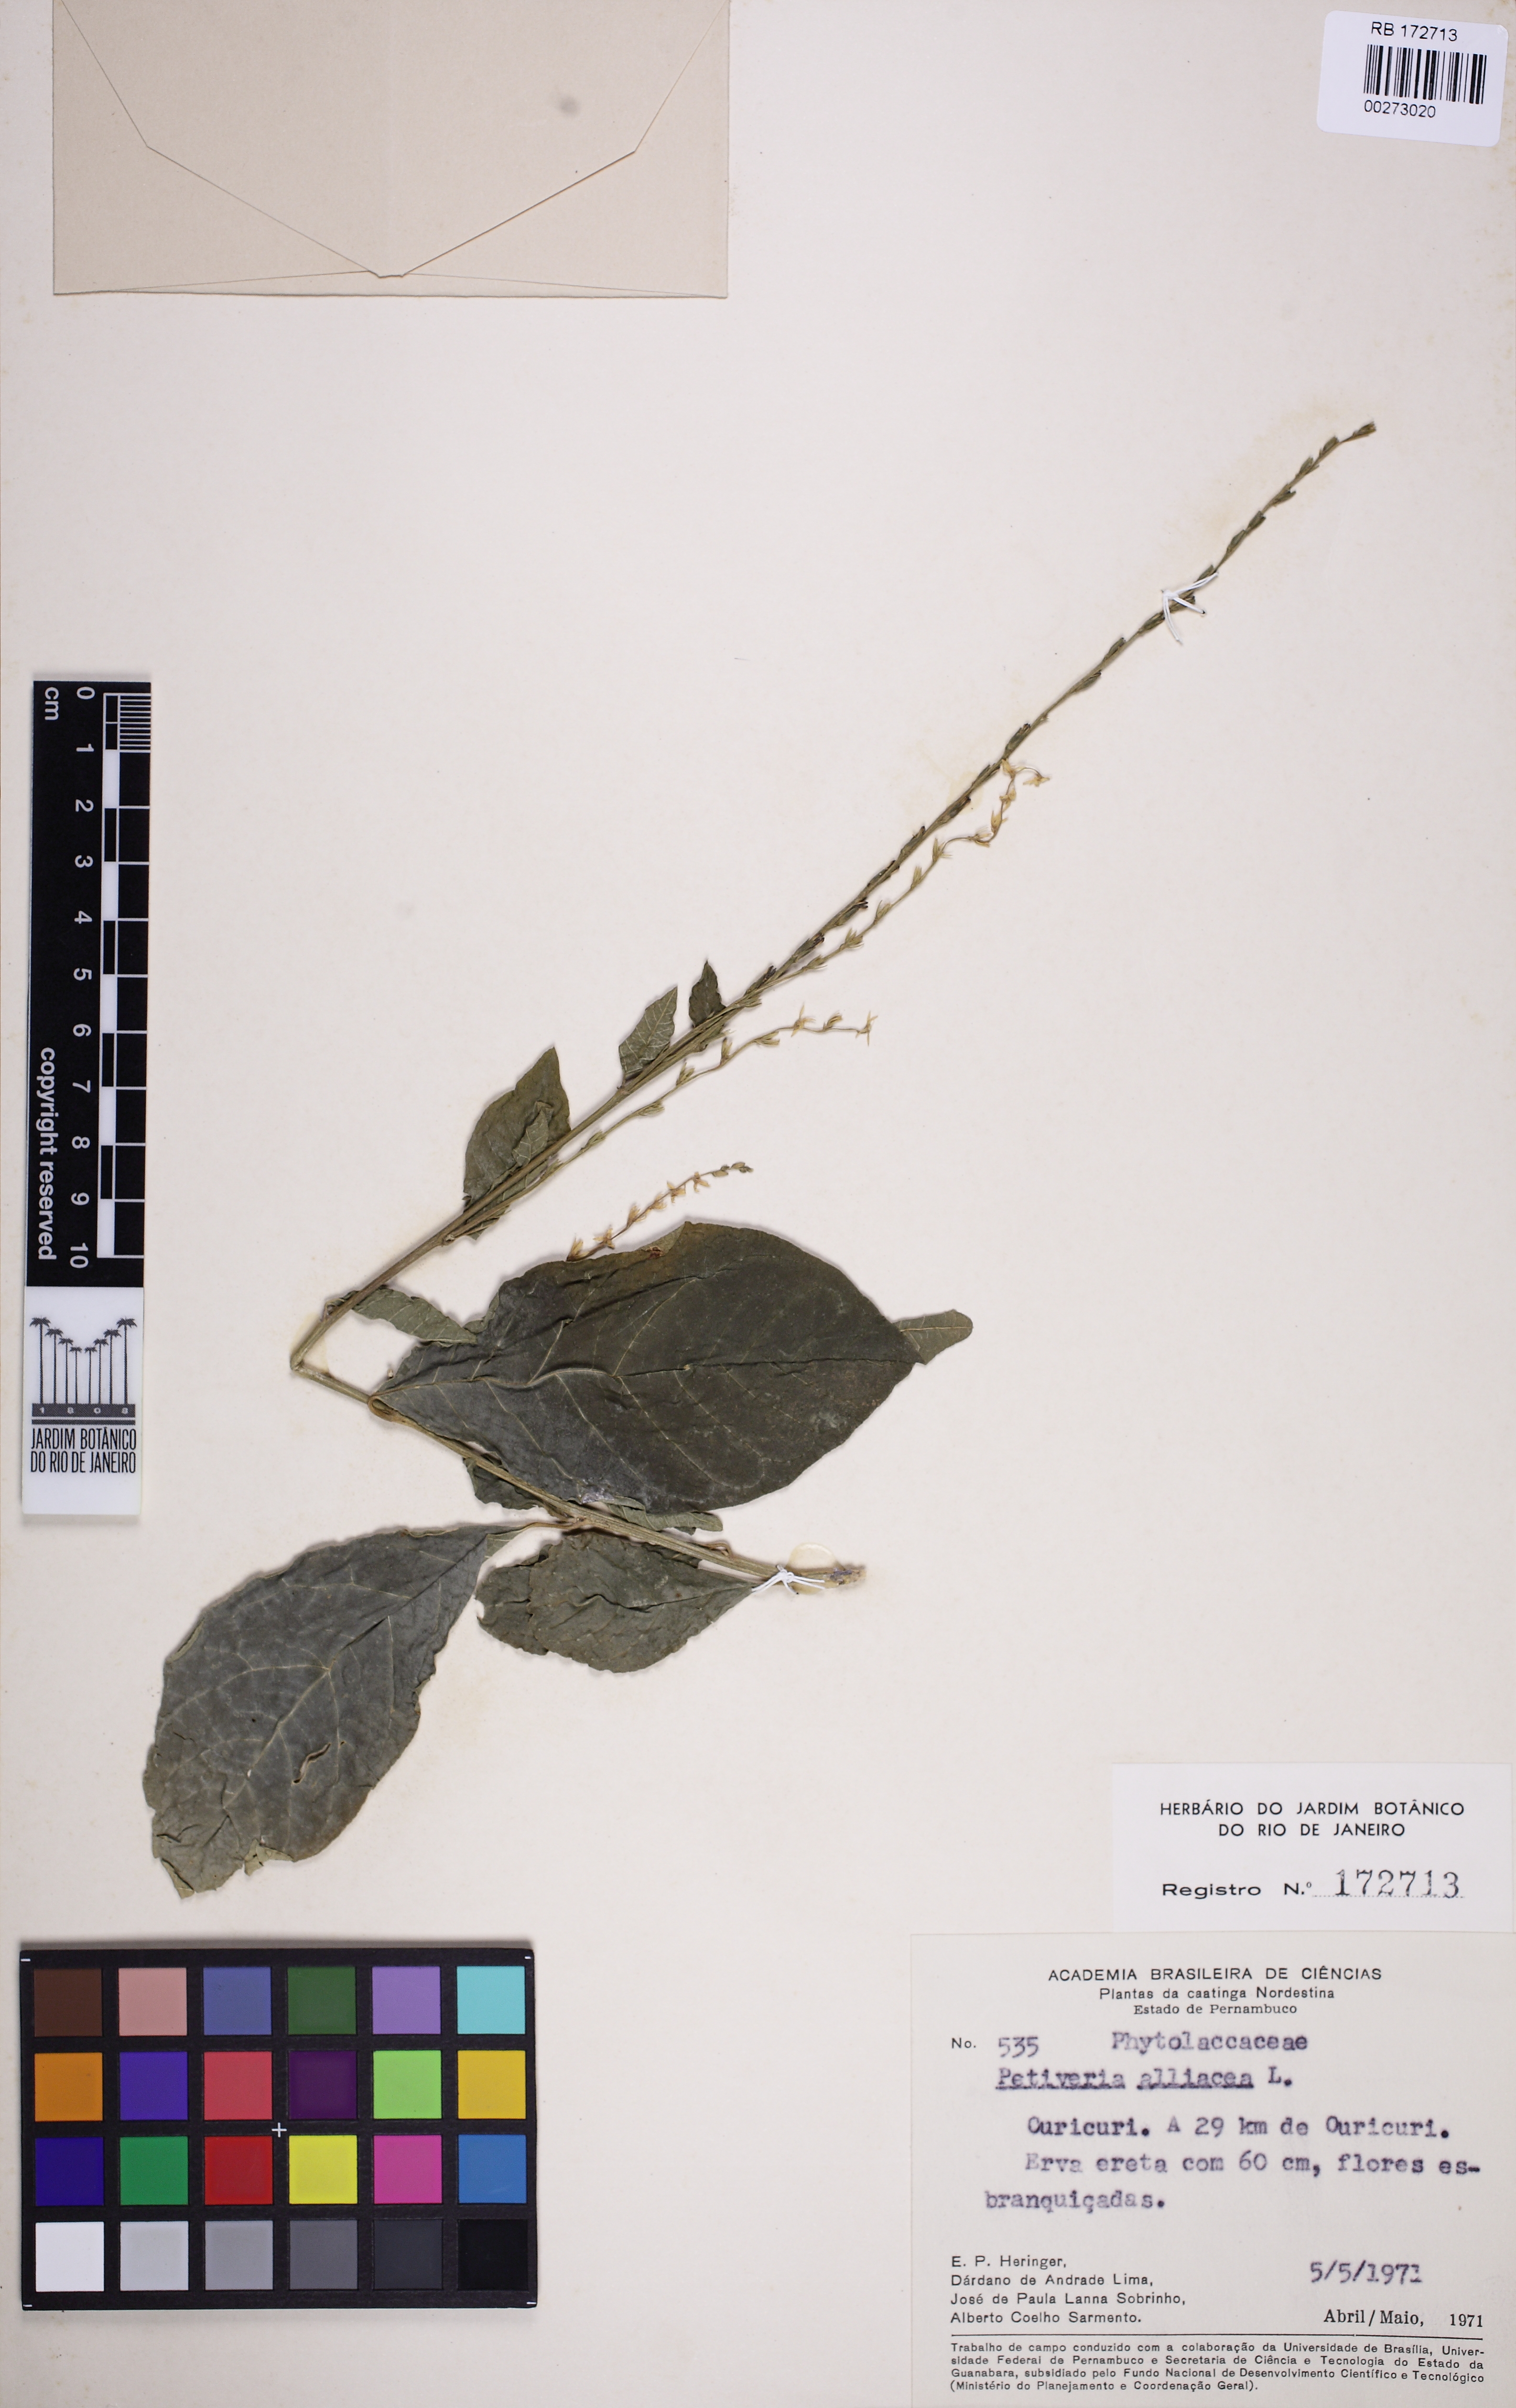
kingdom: Plantae
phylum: Tracheophyta
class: Magnoliopsida
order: Caryophyllales
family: Phytolaccaceae
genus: Petiveria
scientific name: Petiveria alliacea
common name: Garlicweed
